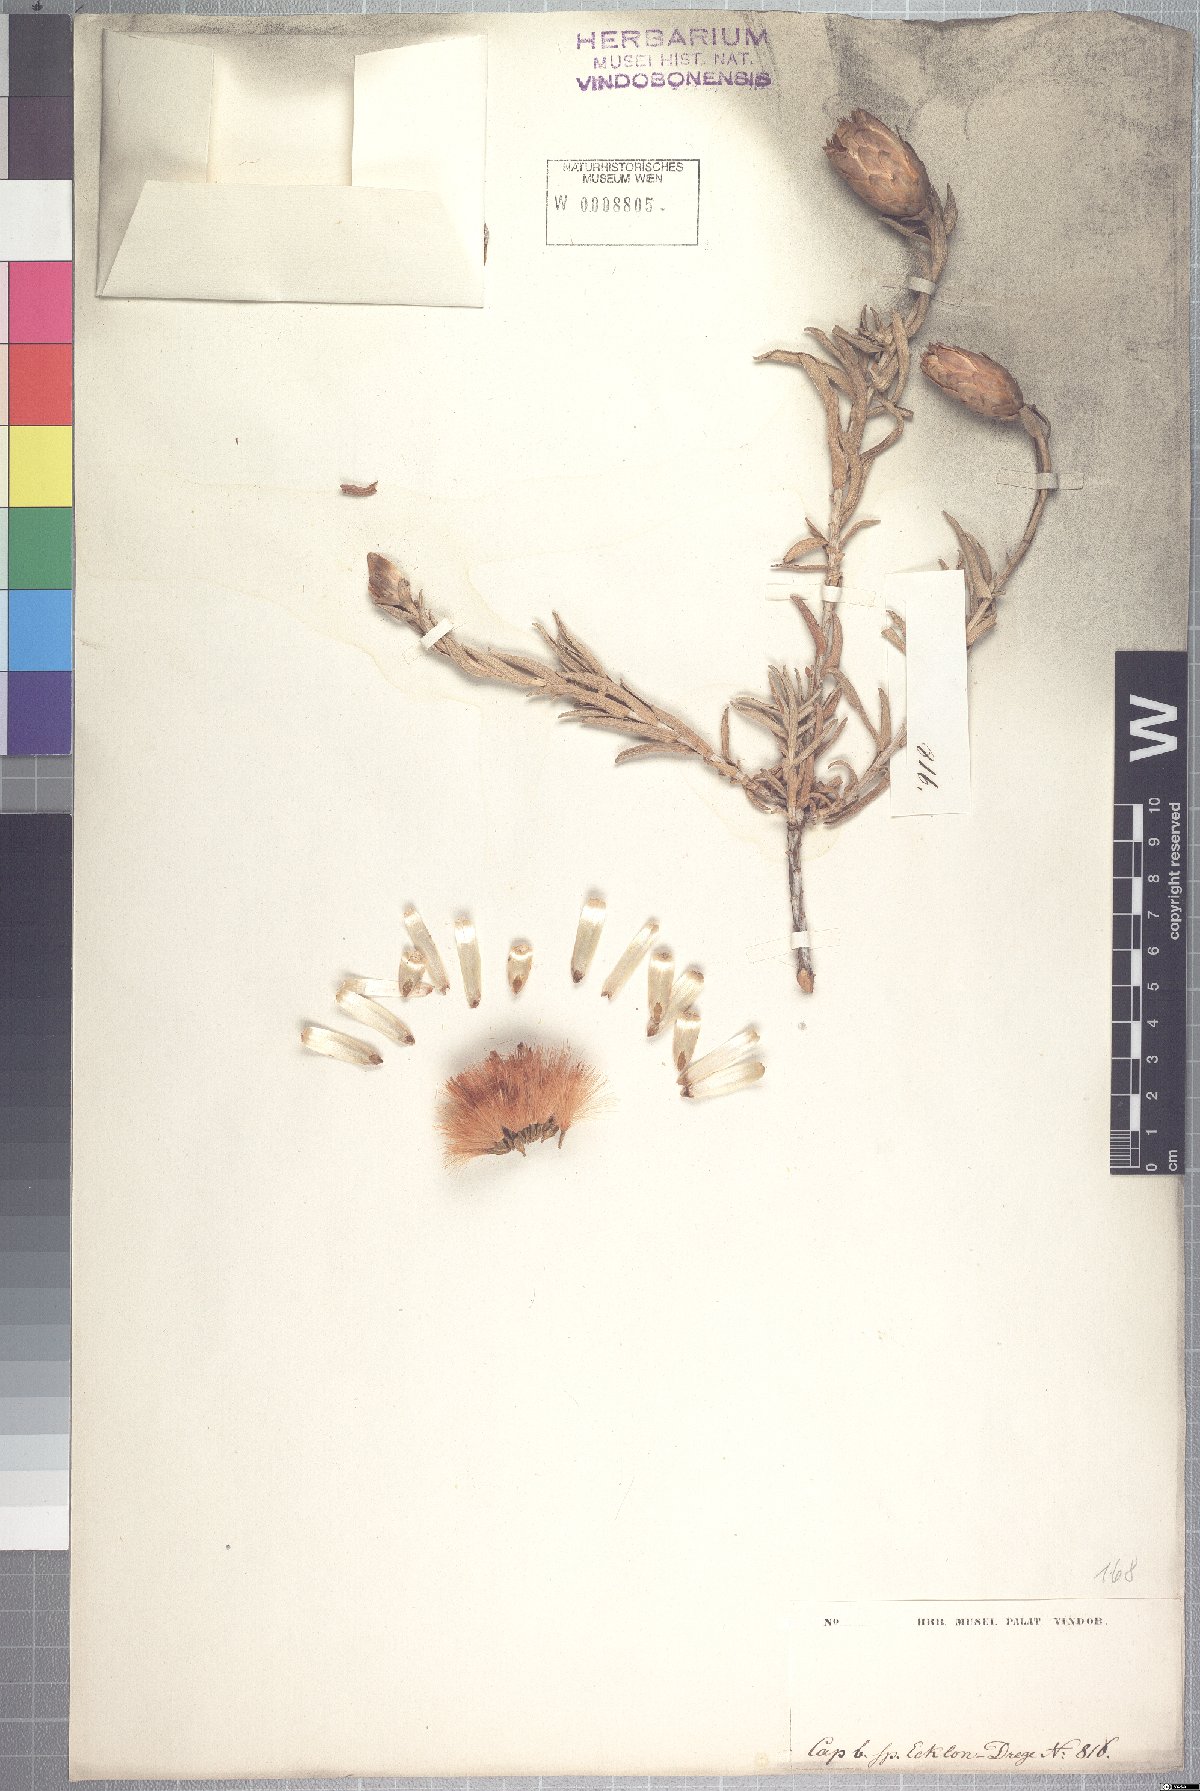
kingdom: Plantae
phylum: Tracheophyta
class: Magnoliopsida
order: Asterales
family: Asteraceae
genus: Pteronia
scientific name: Pteronia onobromoides
